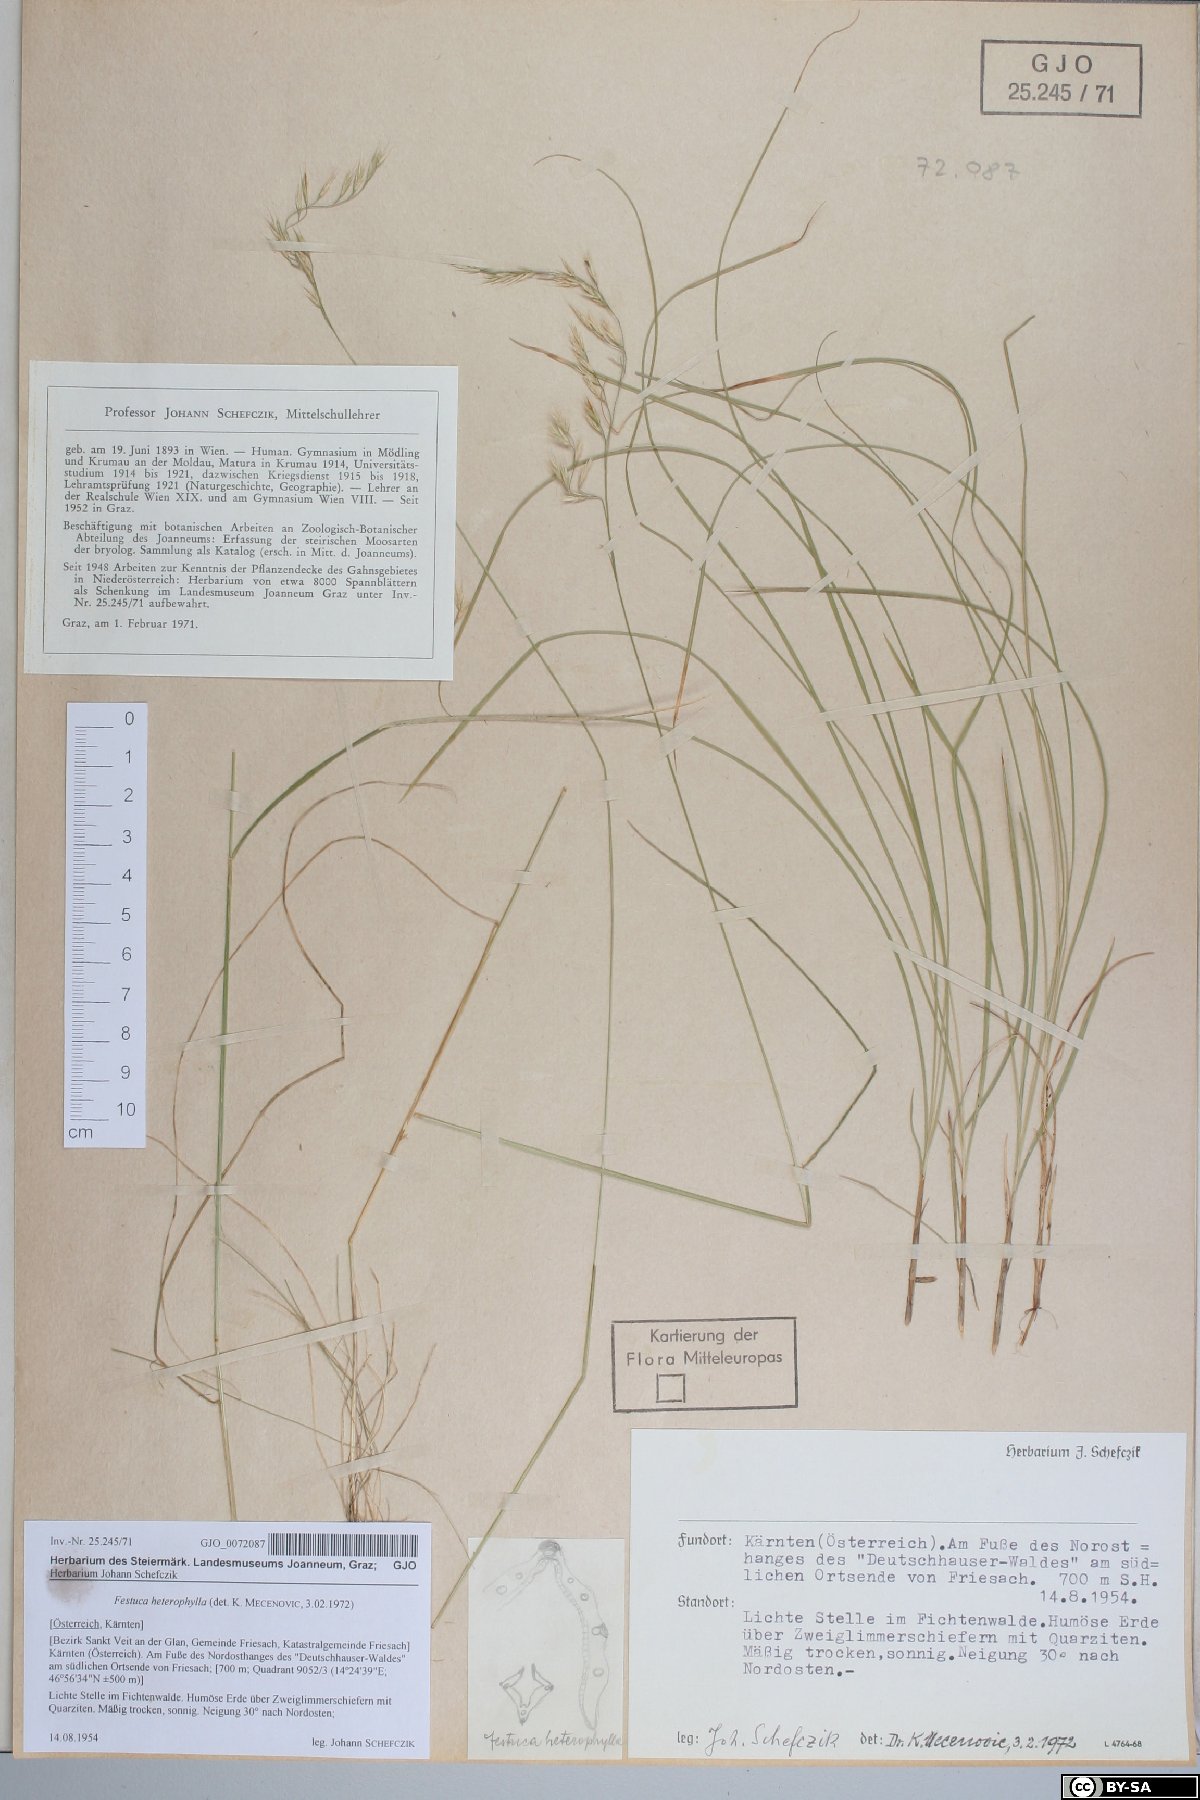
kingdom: Plantae
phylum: Tracheophyta
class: Liliopsida
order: Poales
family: Poaceae
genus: Festuca
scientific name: Festuca heterophylla
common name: Various-leaved fescue
